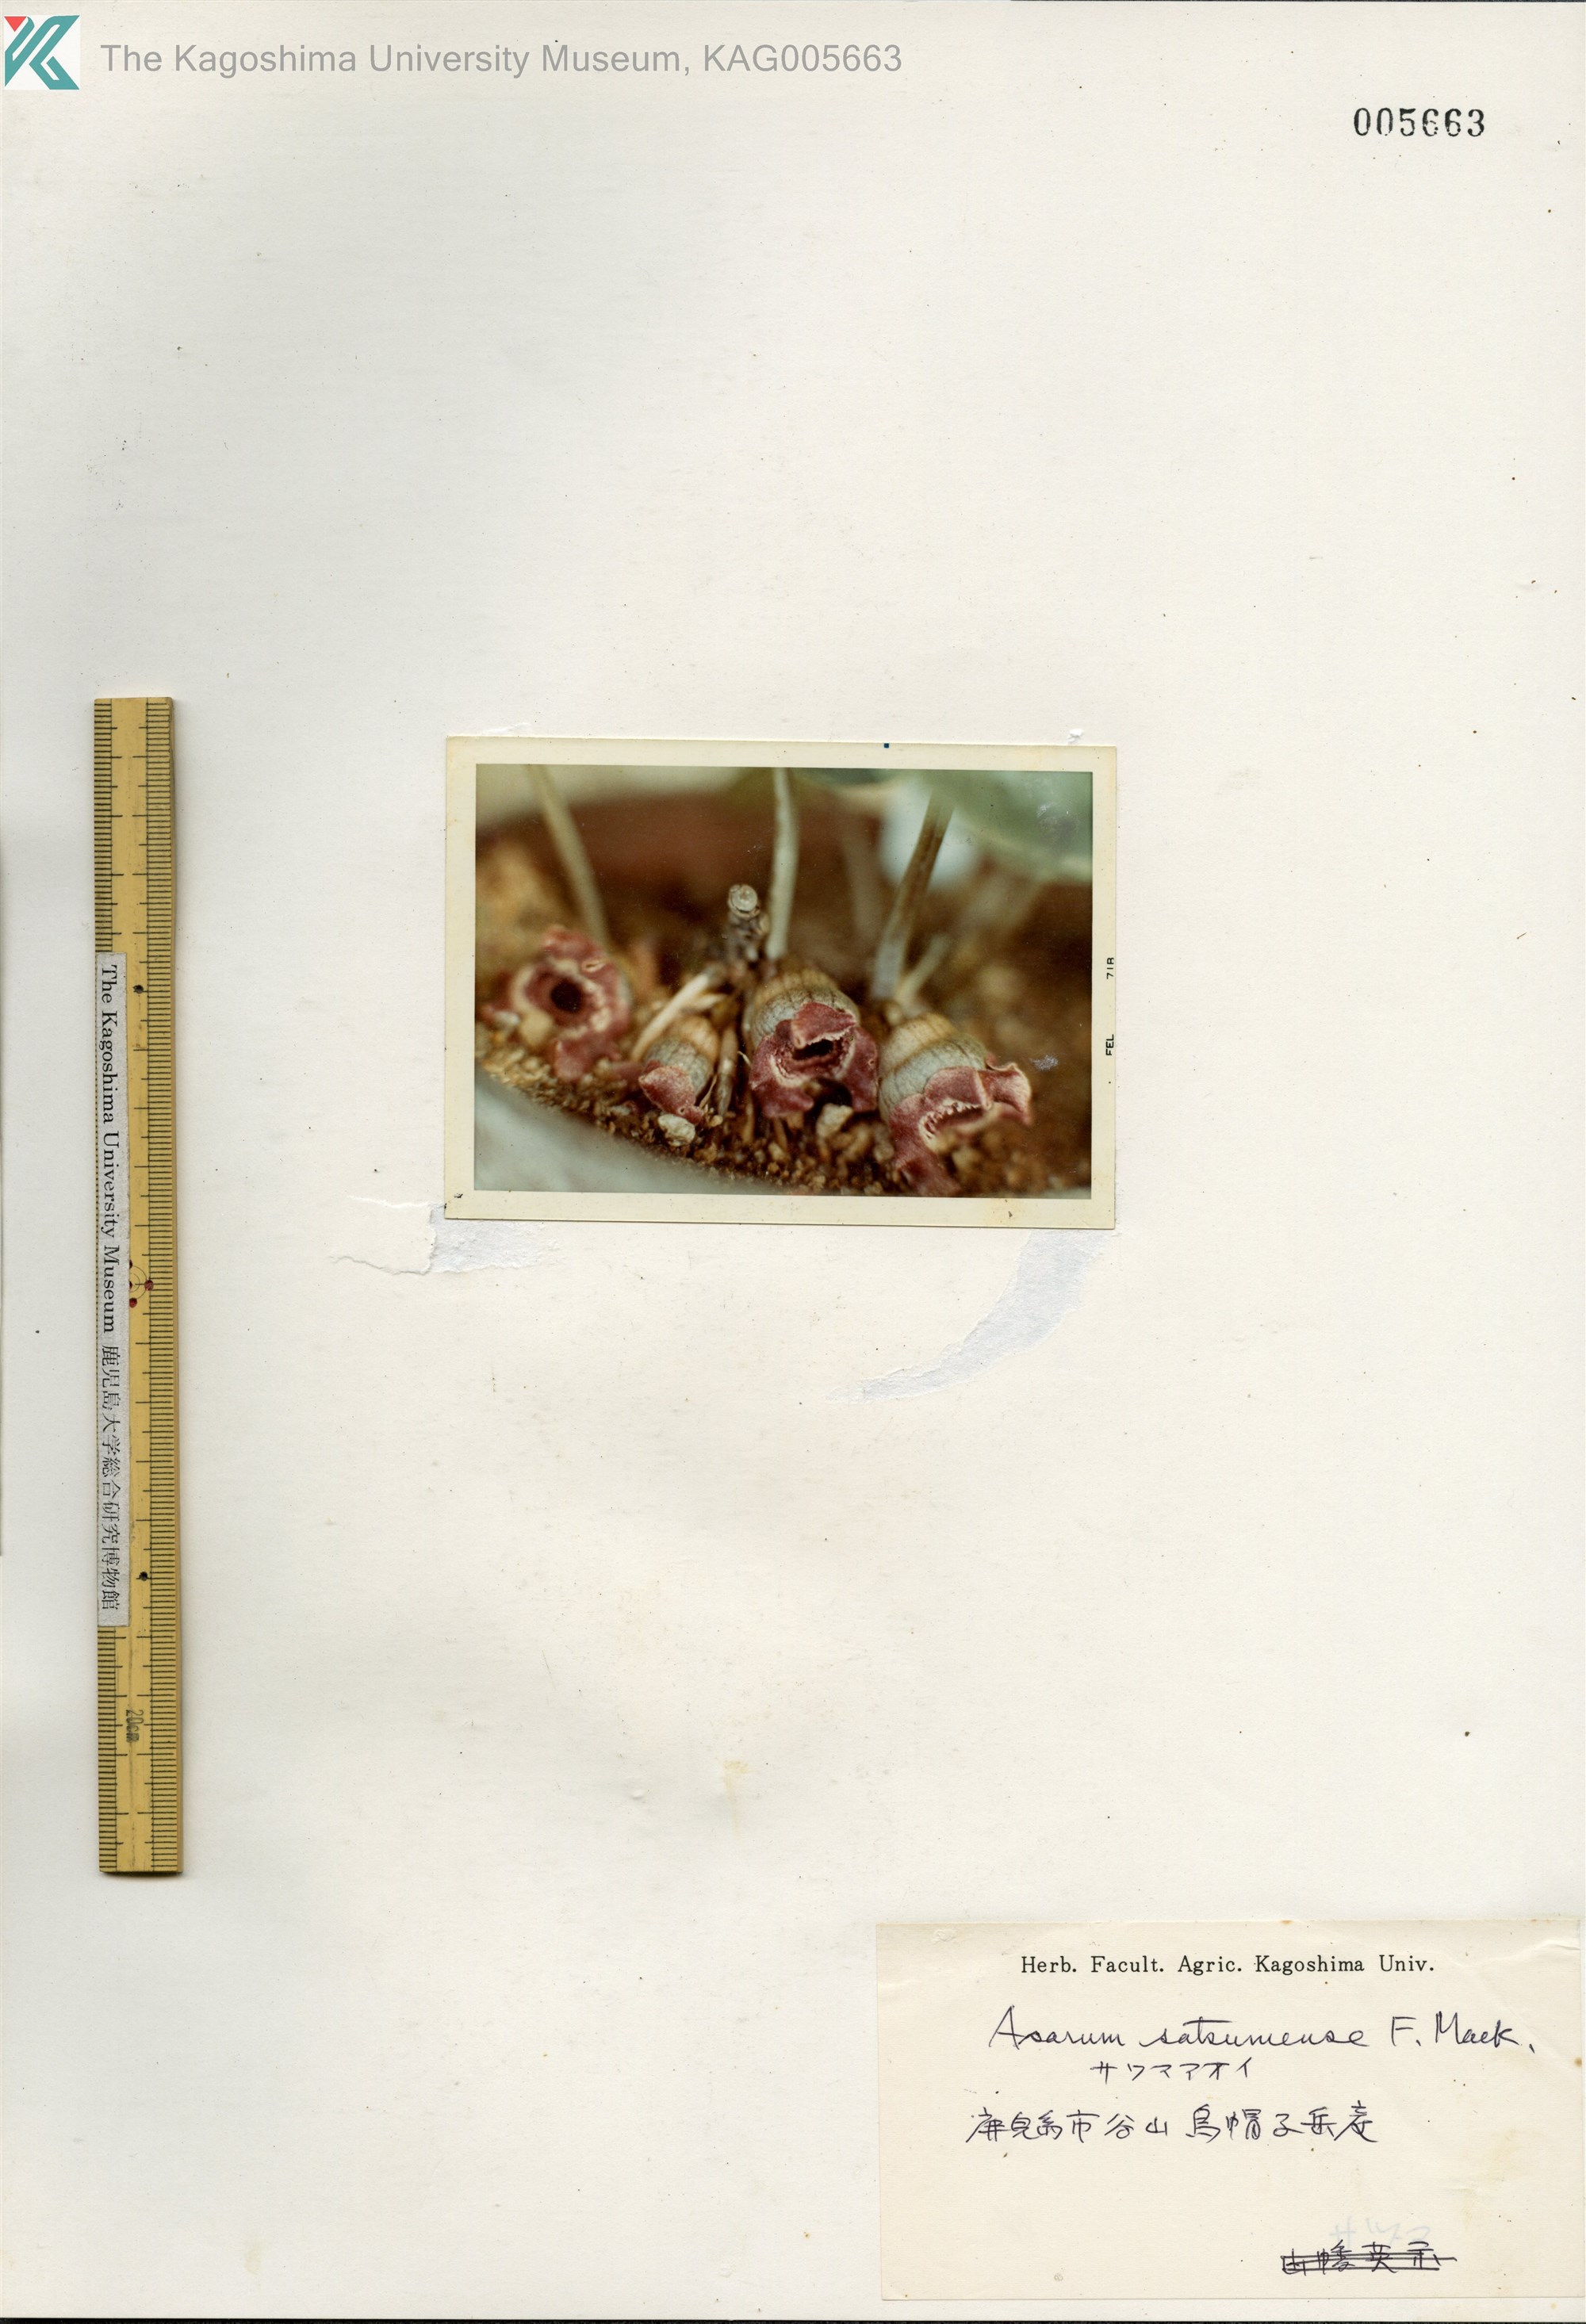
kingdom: Plantae
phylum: Tracheophyta
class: Magnoliopsida
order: Piperales
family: Aristolochiaceae
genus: Asarum
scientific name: Asarum satsumense
